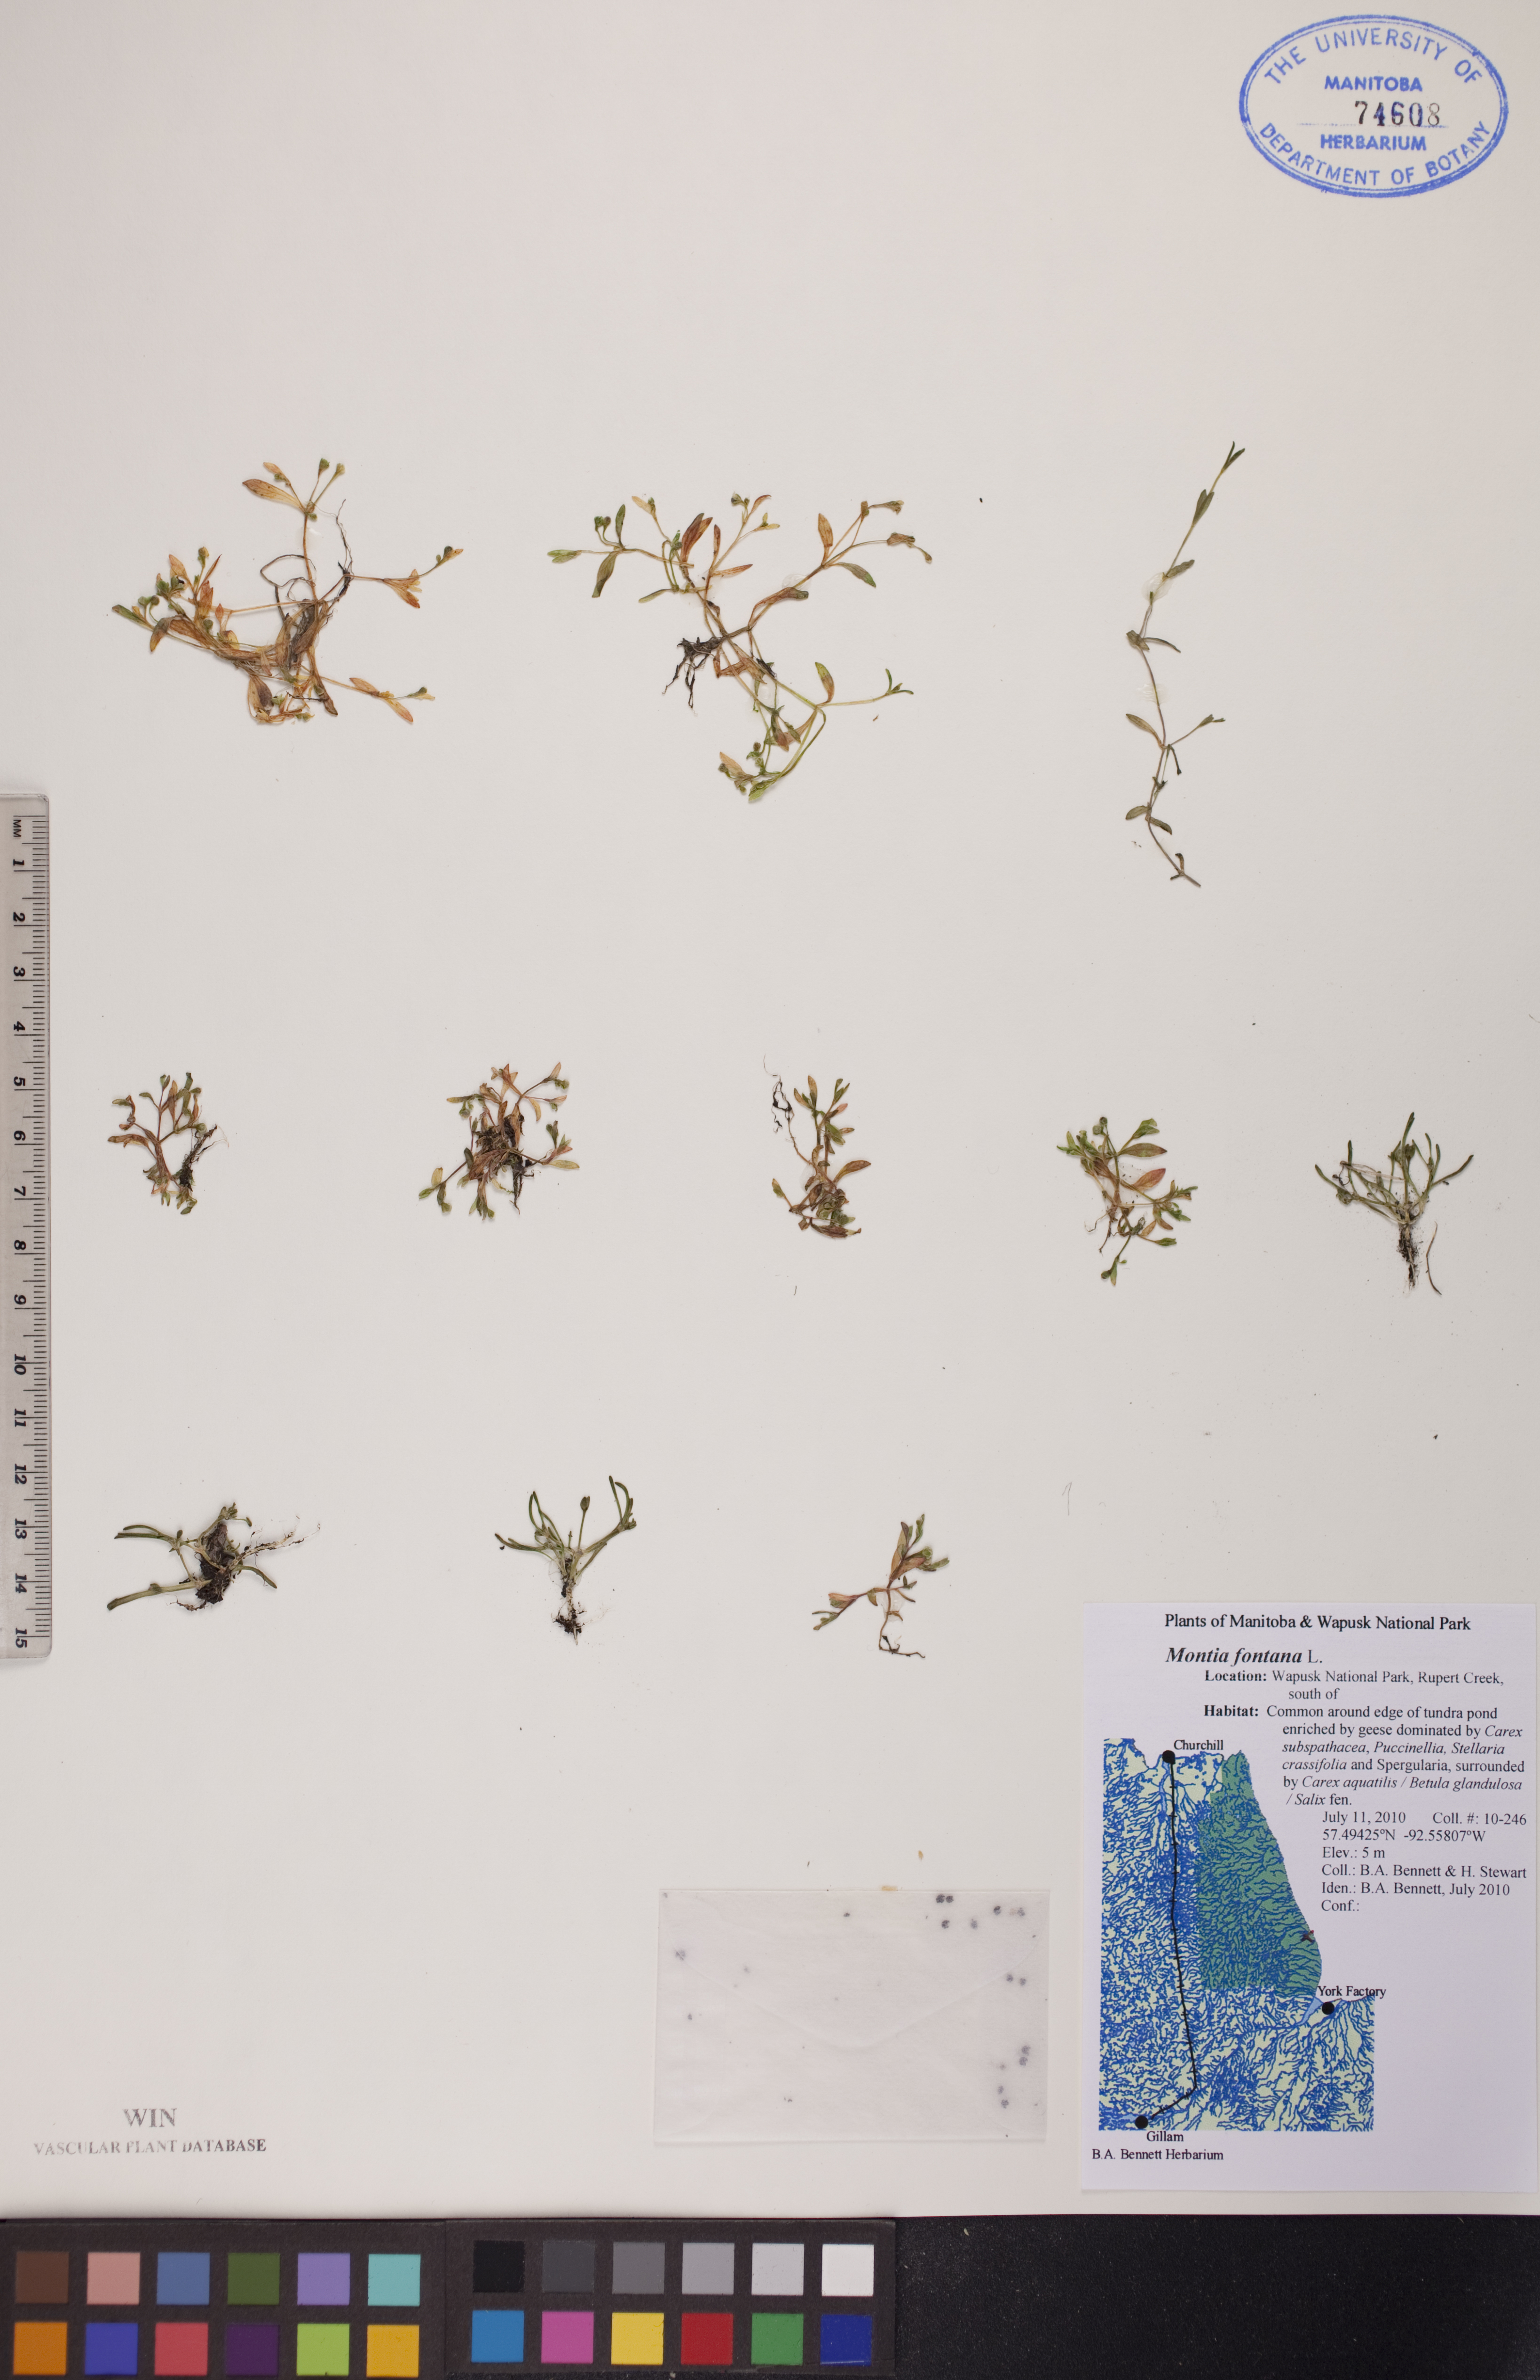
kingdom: Plantae
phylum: Tracheophyta
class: Magnoliopsida
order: Caryophyllales
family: Montiaceae
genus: Montia
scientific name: Montia fontana
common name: Blinks
